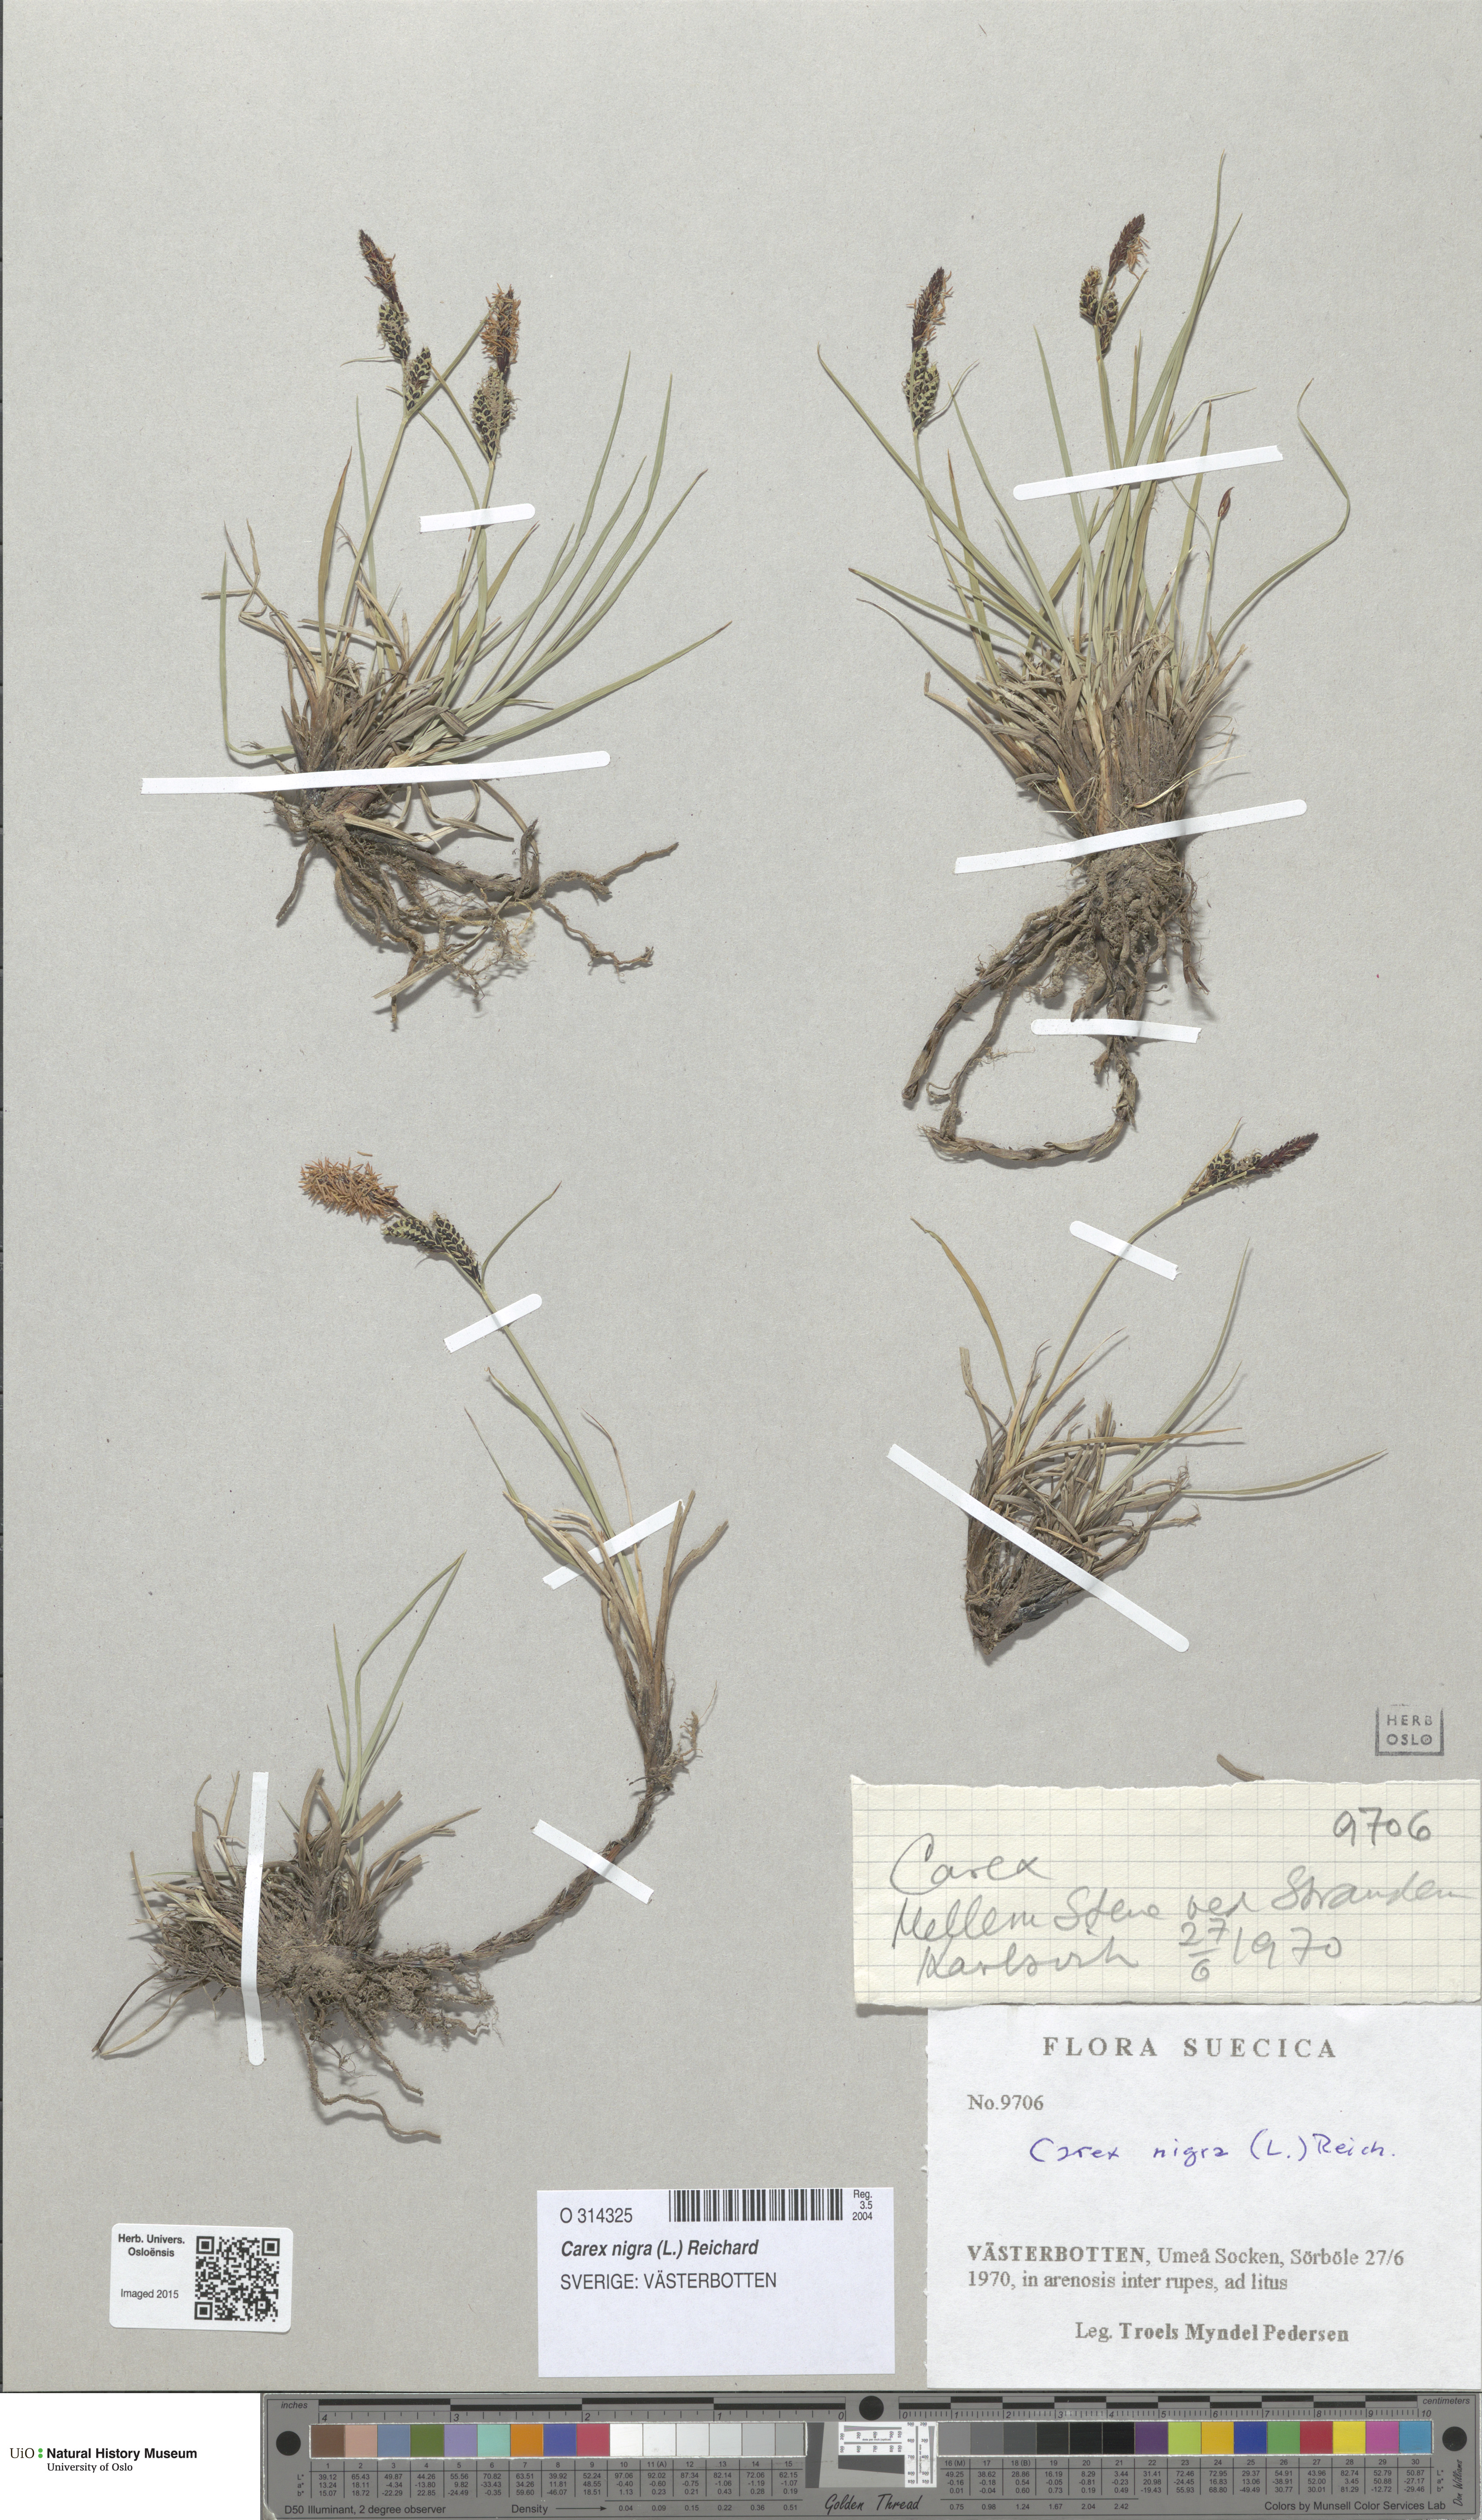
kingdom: Plantae
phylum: Tracheophyta
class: Liliopsida
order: Poales
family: Cyperaceae
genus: Carex
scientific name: Carex nigra
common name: Common sedge
